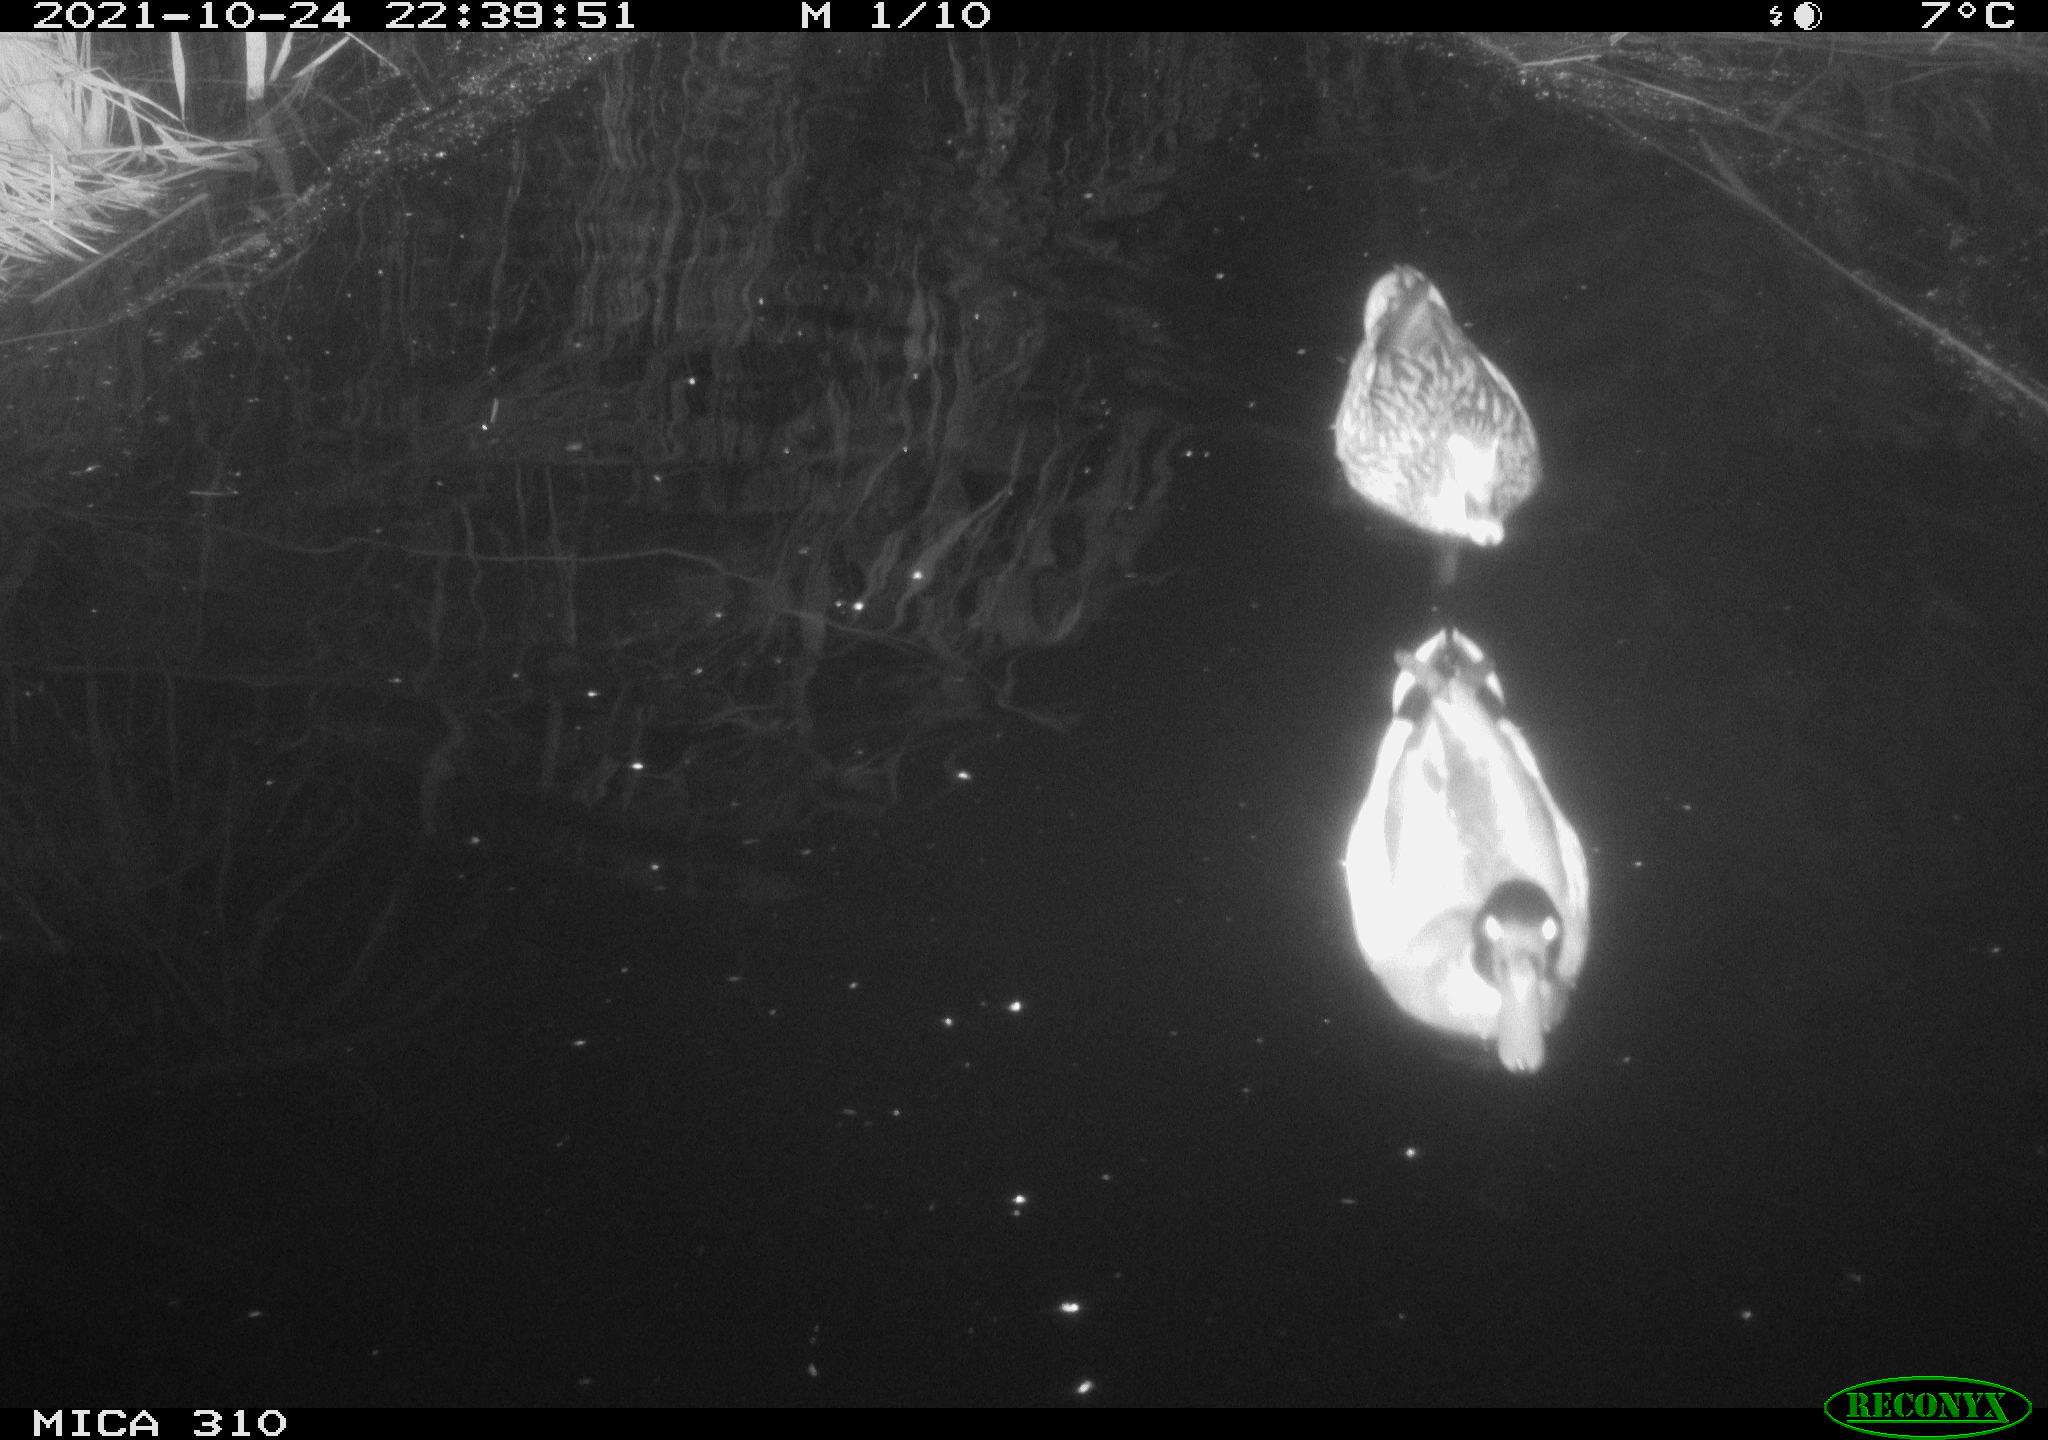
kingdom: Animalia
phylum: Chordata
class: Aves
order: Anseriformes
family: Anatidae
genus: Anas
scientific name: Anas platyrhynchos
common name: Mallard
